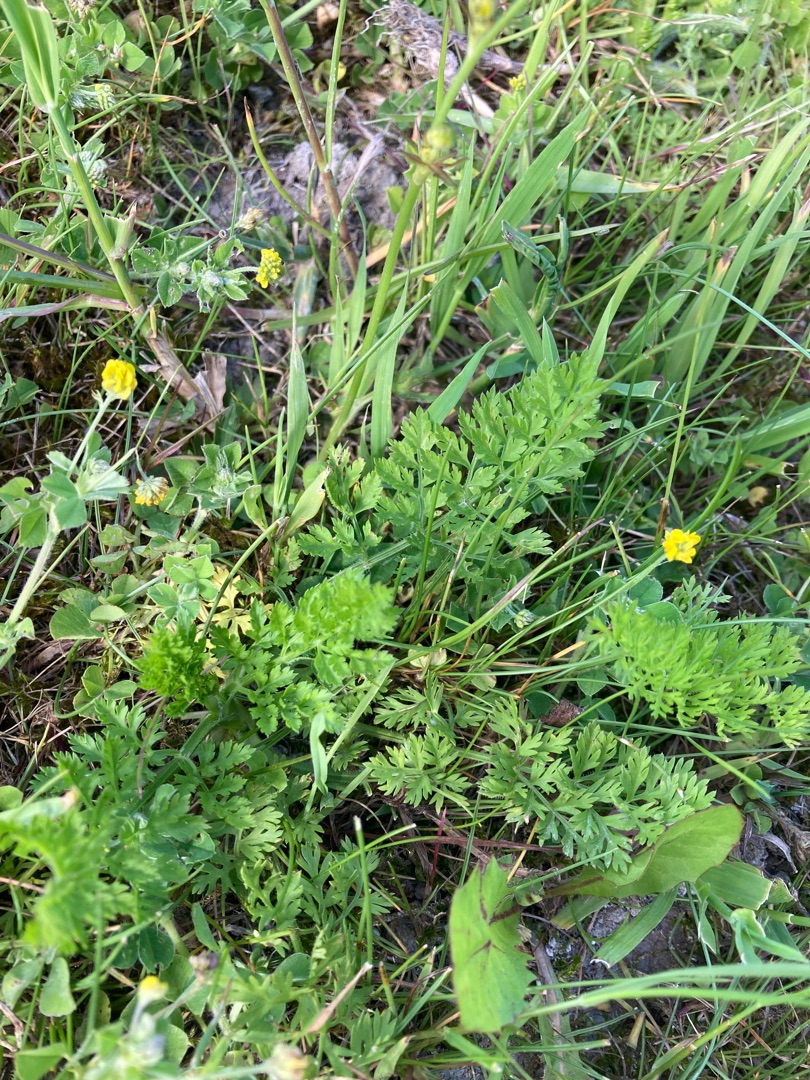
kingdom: Plantae
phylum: Tracheophyta
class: Magnoliopsida
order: Apiales
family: Apiaceae
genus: Daucus
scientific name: Daucus carota
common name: Vild gulerod
